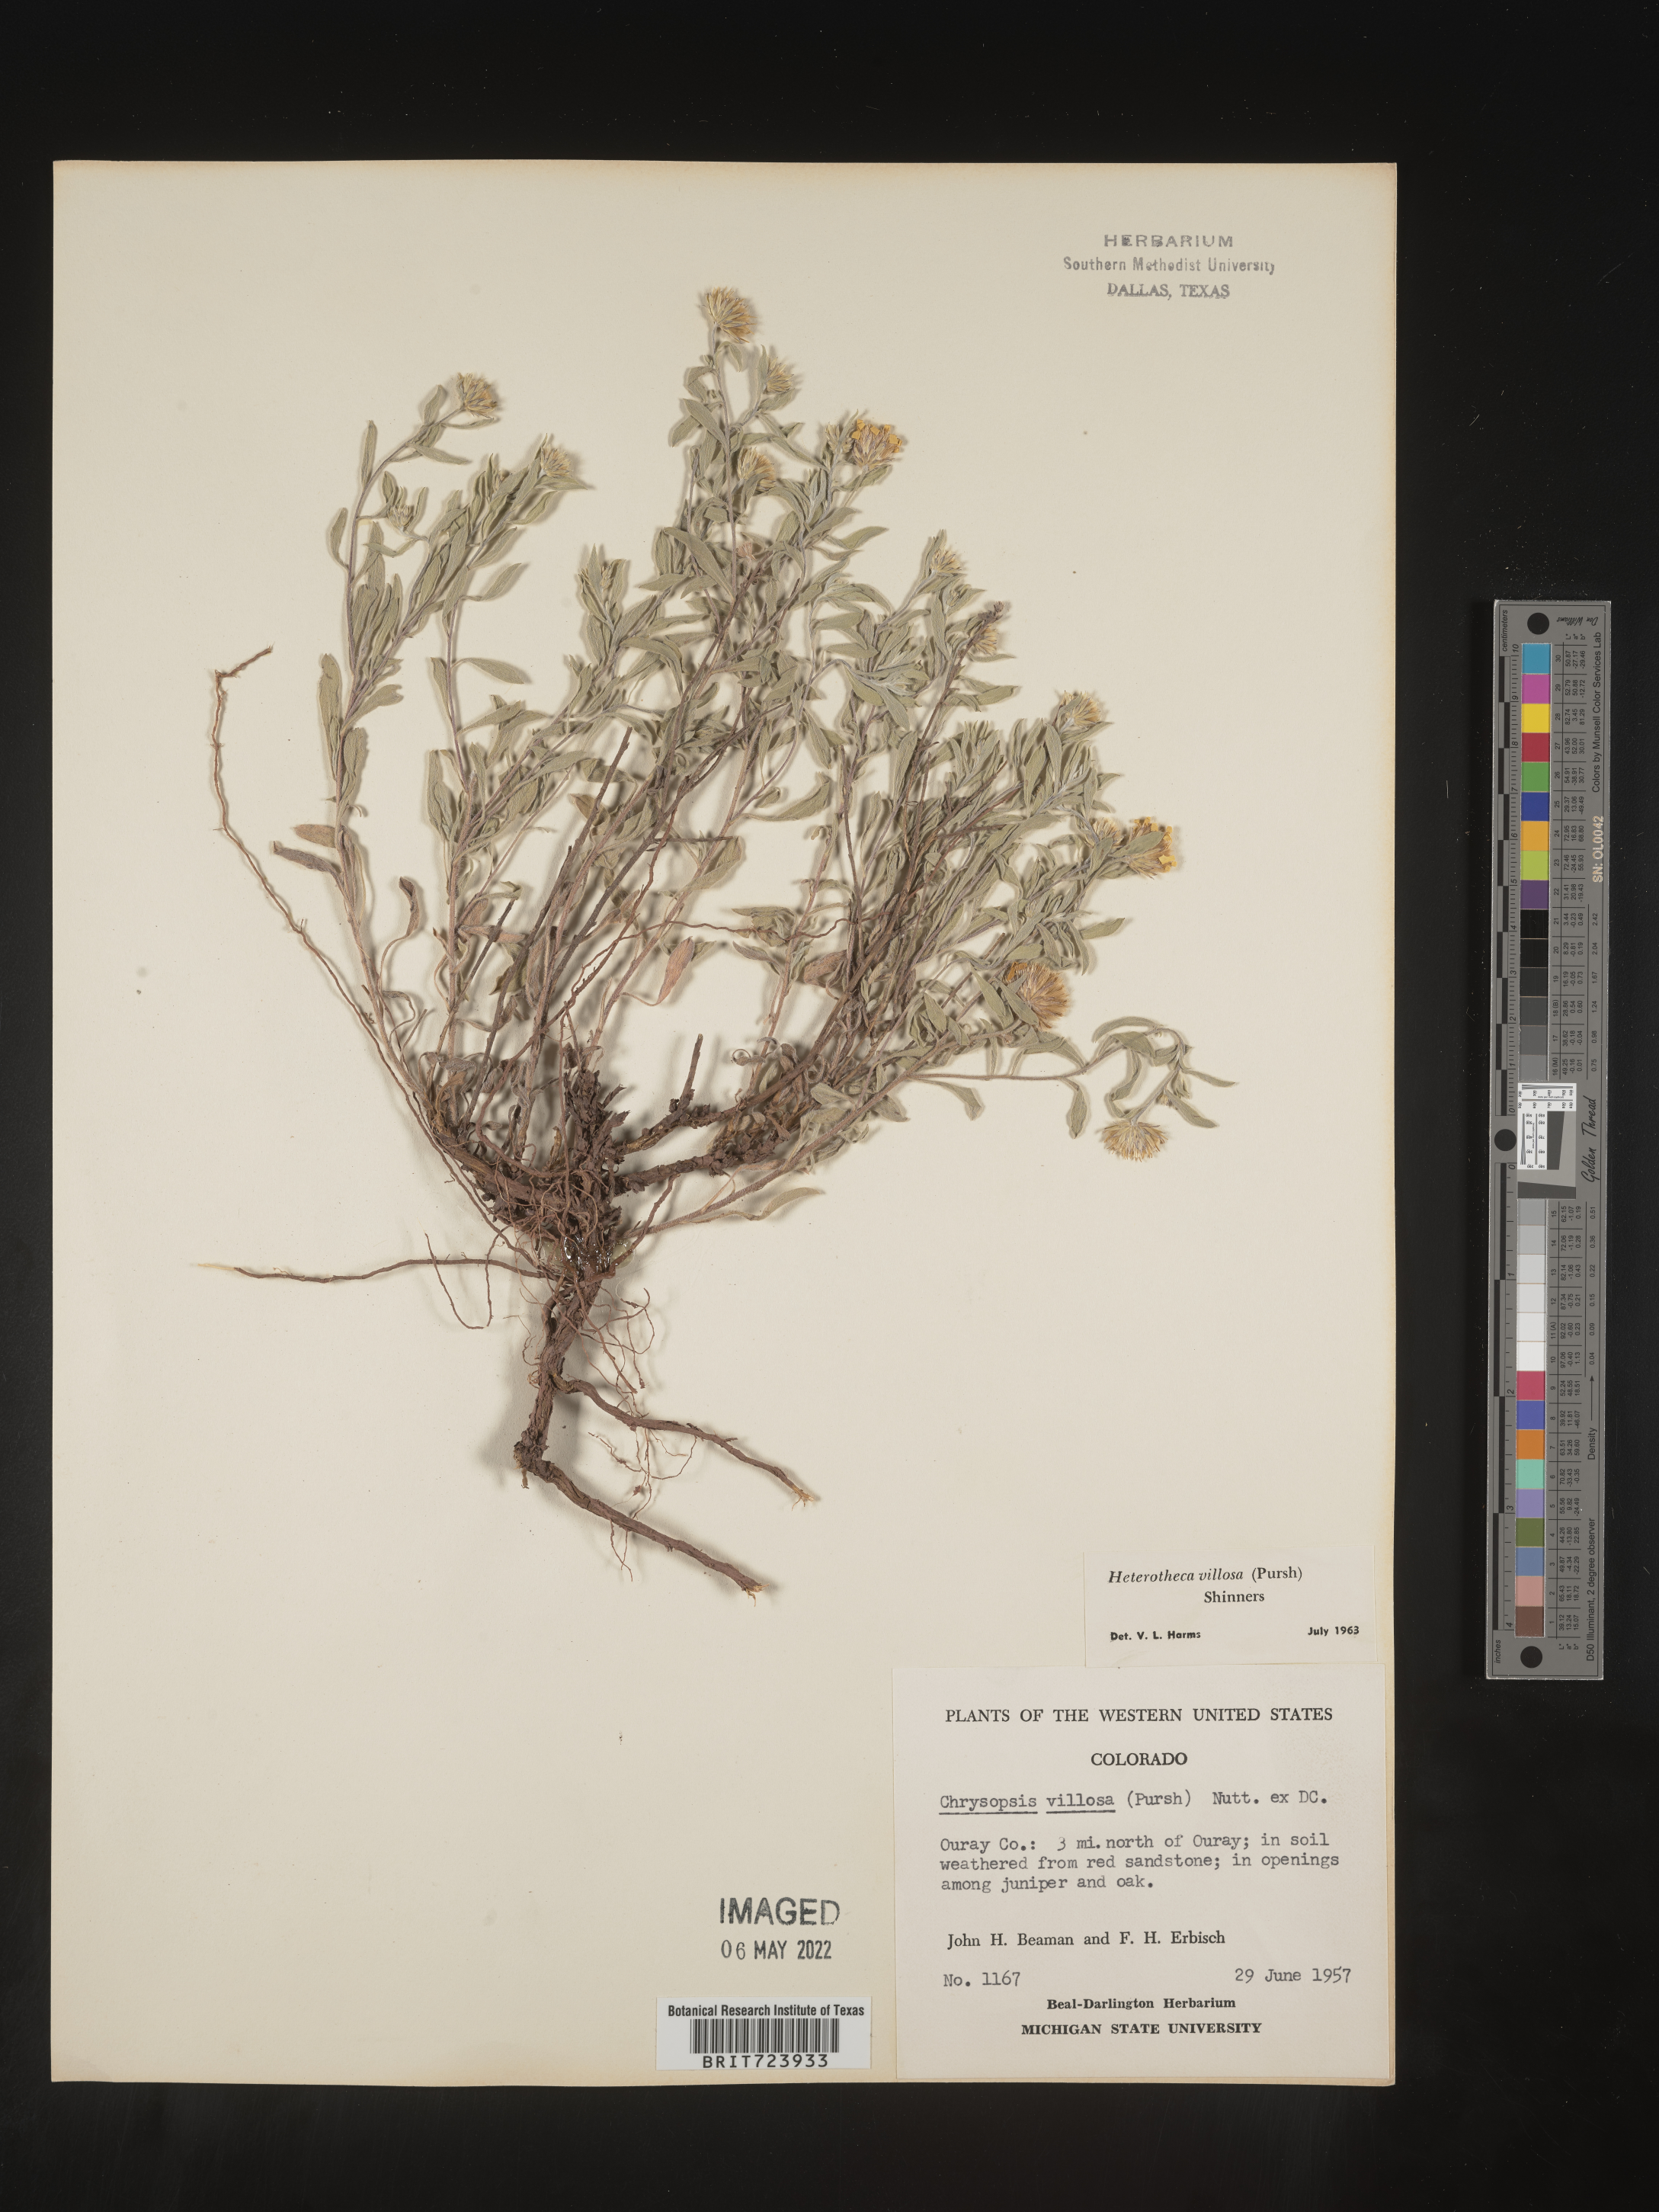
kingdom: Plantae
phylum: Tracheophyta
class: Magnoliopsida
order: Asterales
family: Asteraceae
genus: Heterotheca
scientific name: Heterotheca pedunculata
